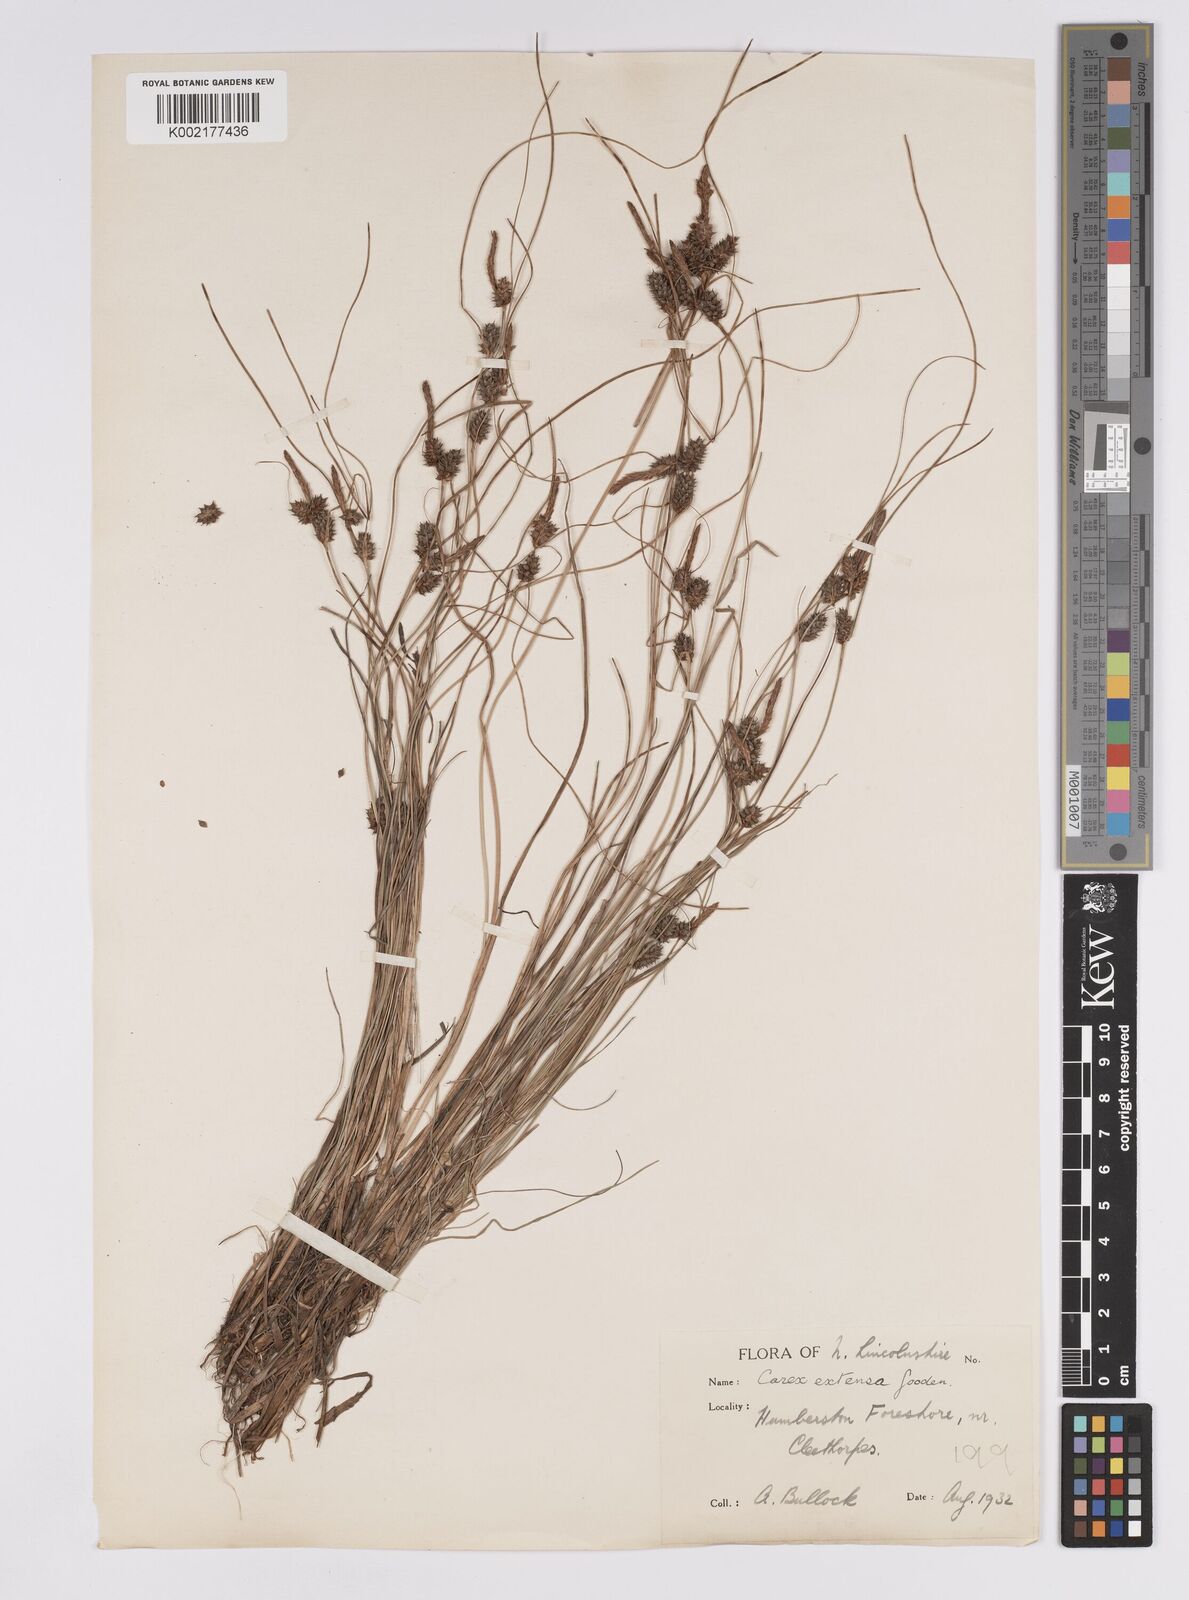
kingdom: Plantae
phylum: Tracheophyta
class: Liliopsida
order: Poales
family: Cyperaceae
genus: Carex
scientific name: Carex extensa
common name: Long-bracted sedge
